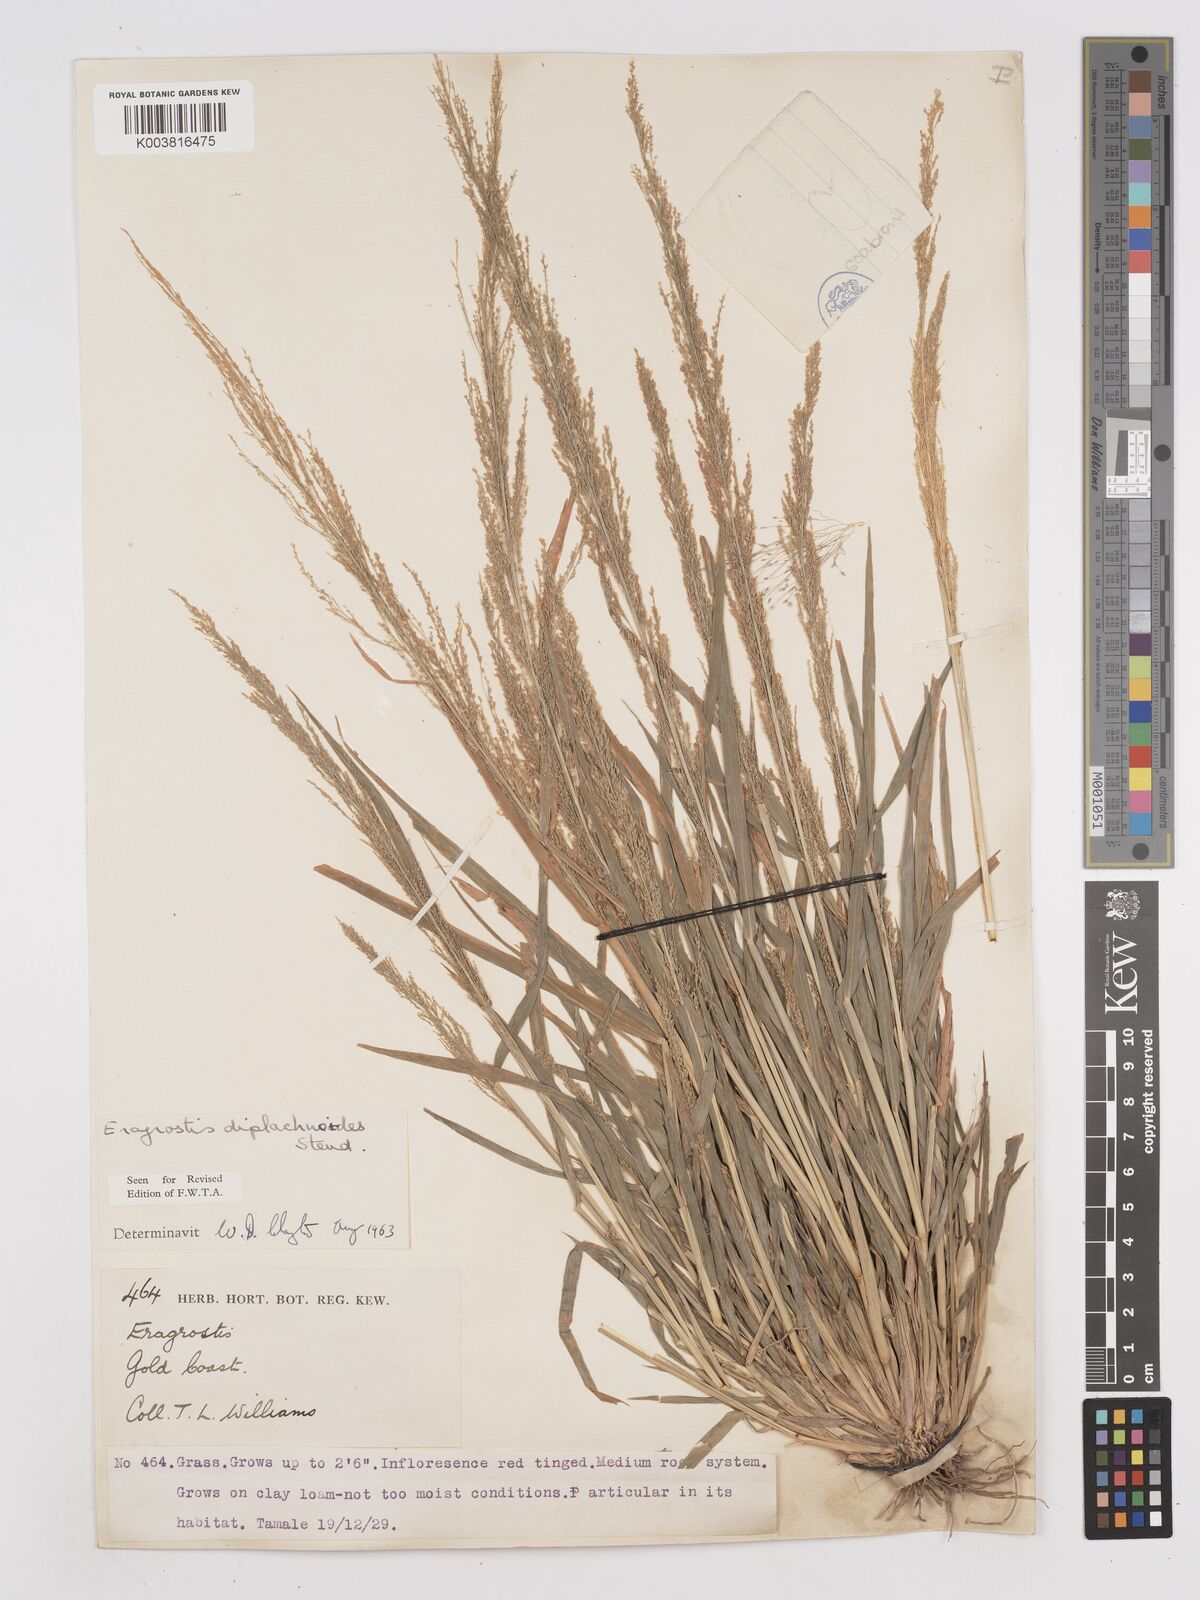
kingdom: Plantae
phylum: Tracheophyta
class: Liliopsida
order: Poales
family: Poaceae
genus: Eragrostis
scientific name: Eragrostis japonica
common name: Pond lovegrass
